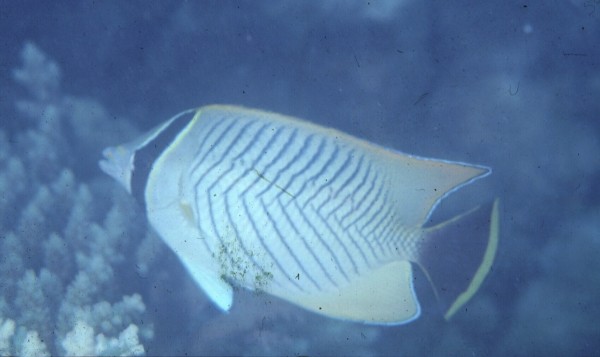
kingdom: Animalia
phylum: Chordata
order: Perciformes
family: Chaetodontidae
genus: Chaetodon
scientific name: Chaetodon trifascialis
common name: Chevroned butterflyfish
